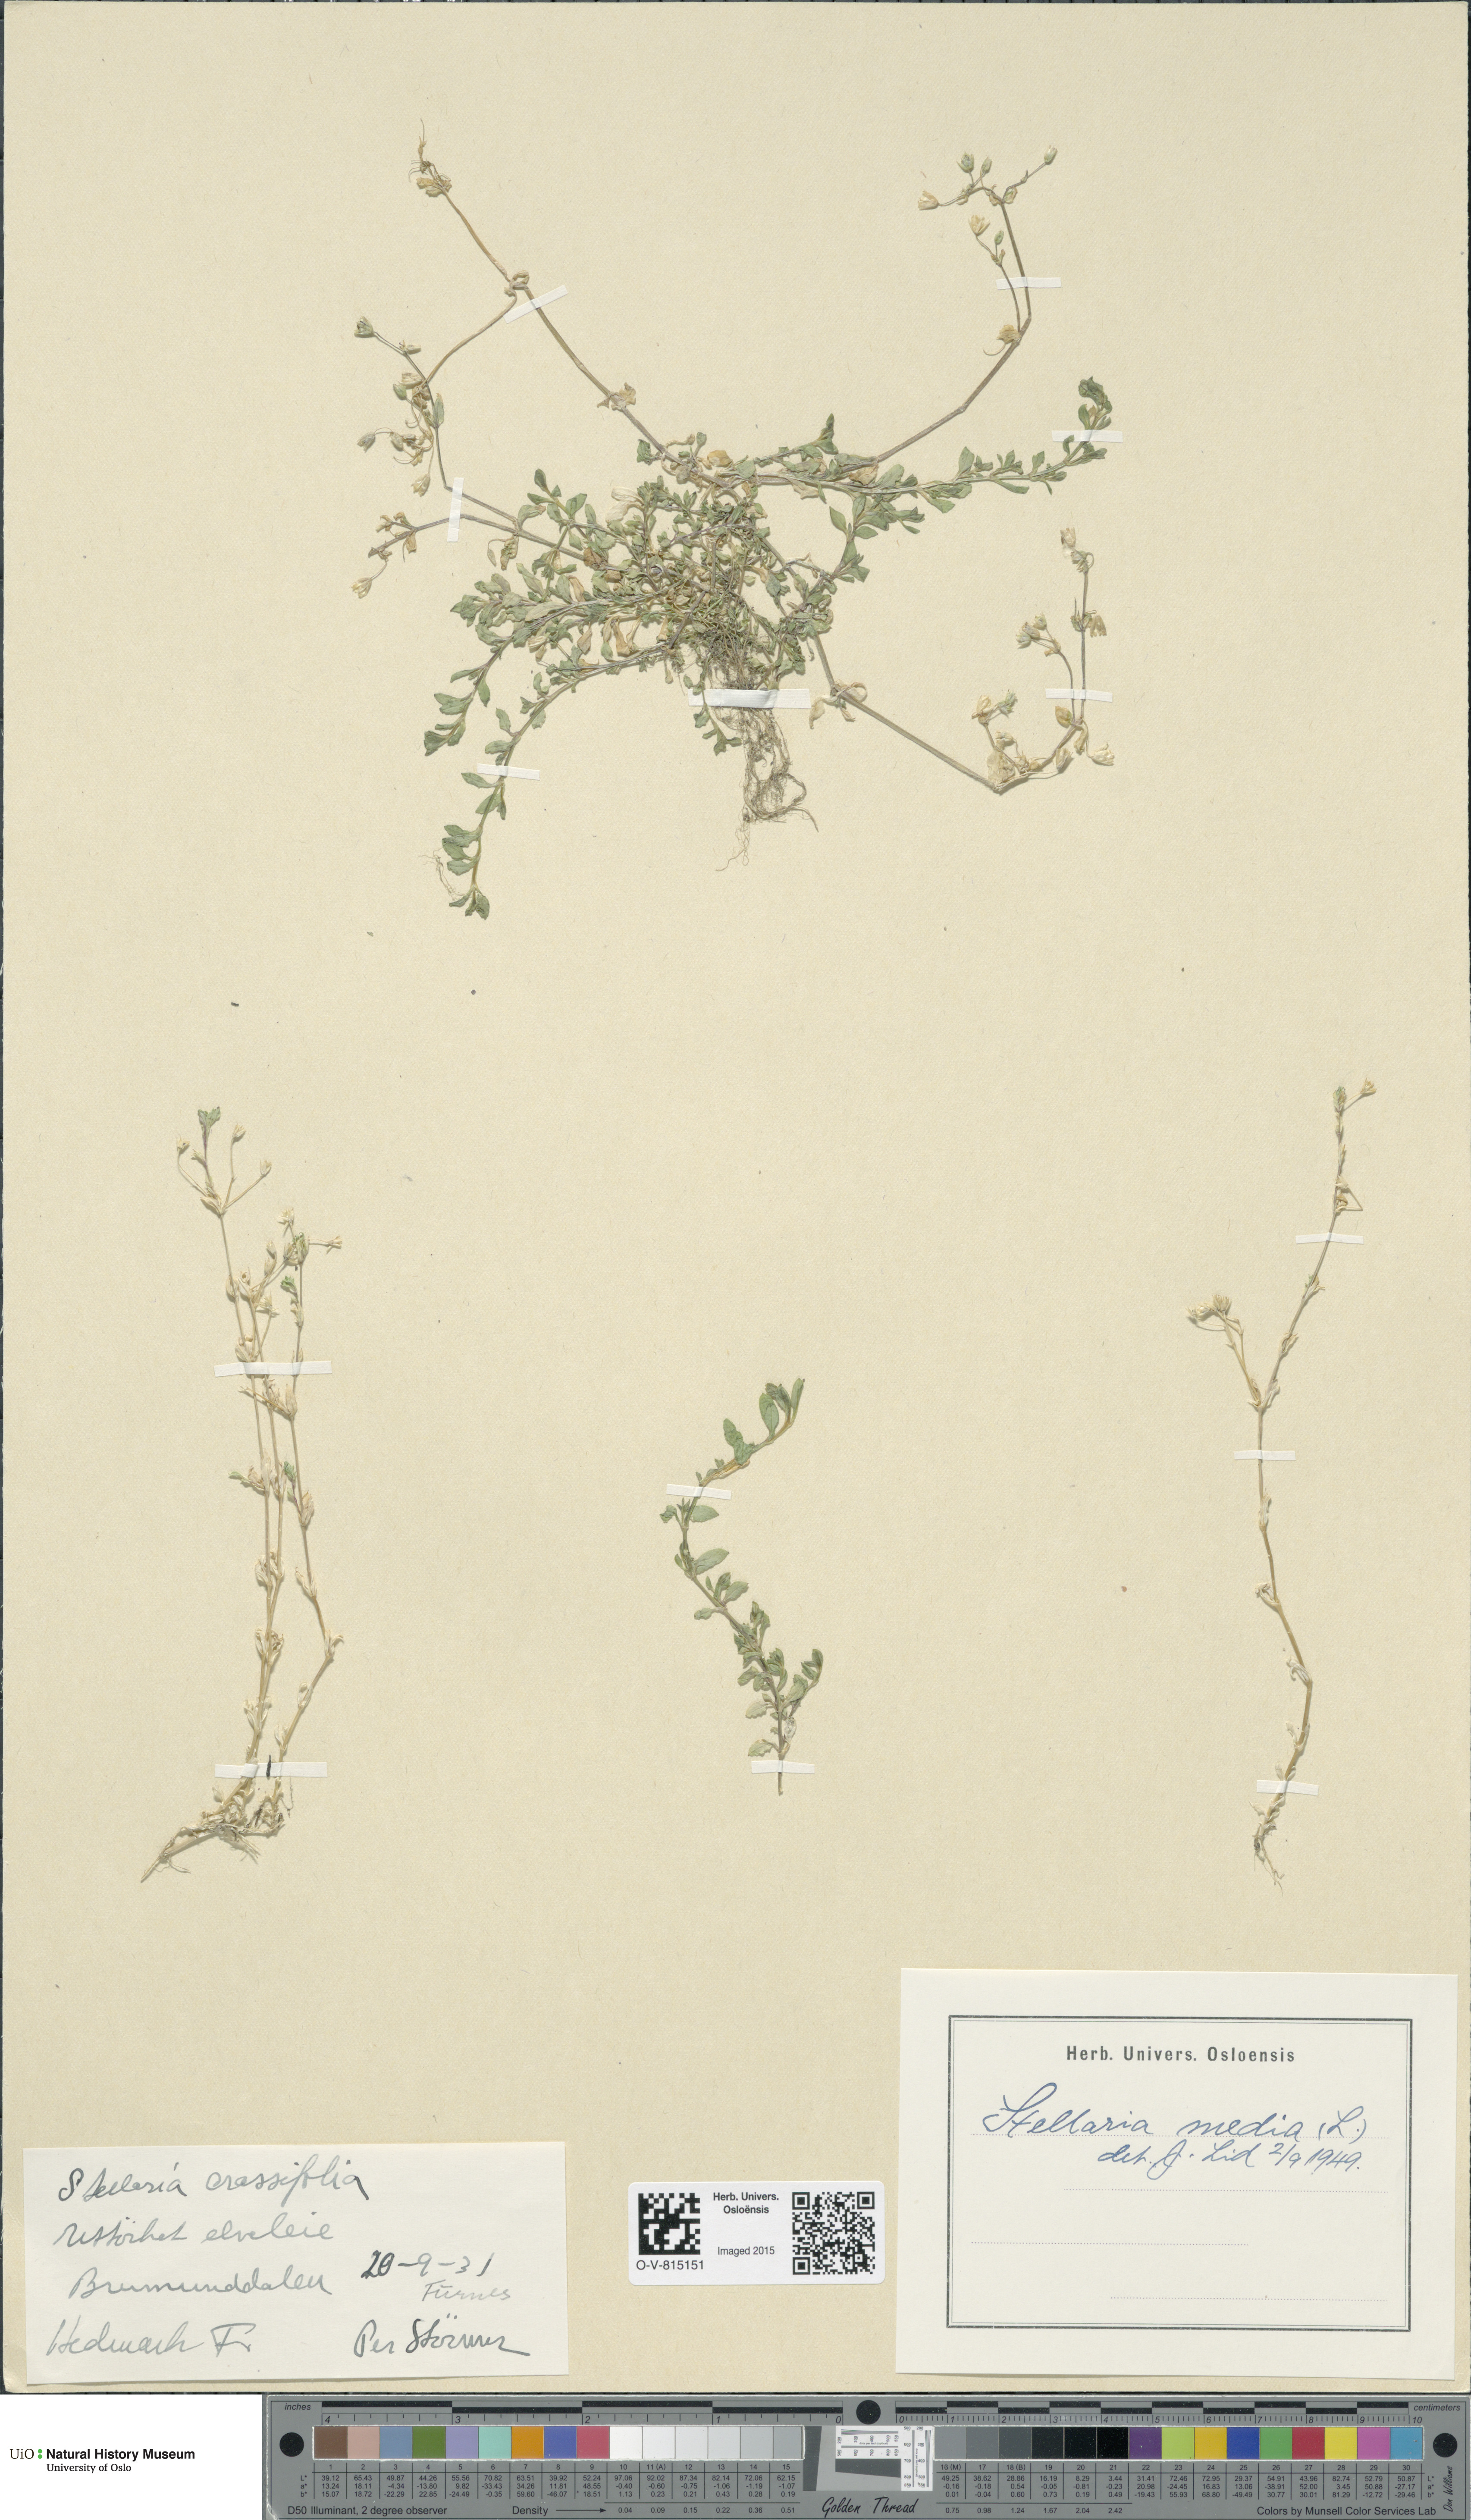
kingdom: Plantae
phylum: Tracheophyta
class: Magnoliopsida
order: Caryophyllales
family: Caryophyllaceae
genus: Stellaria
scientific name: Stellaria media
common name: Common chickweed
